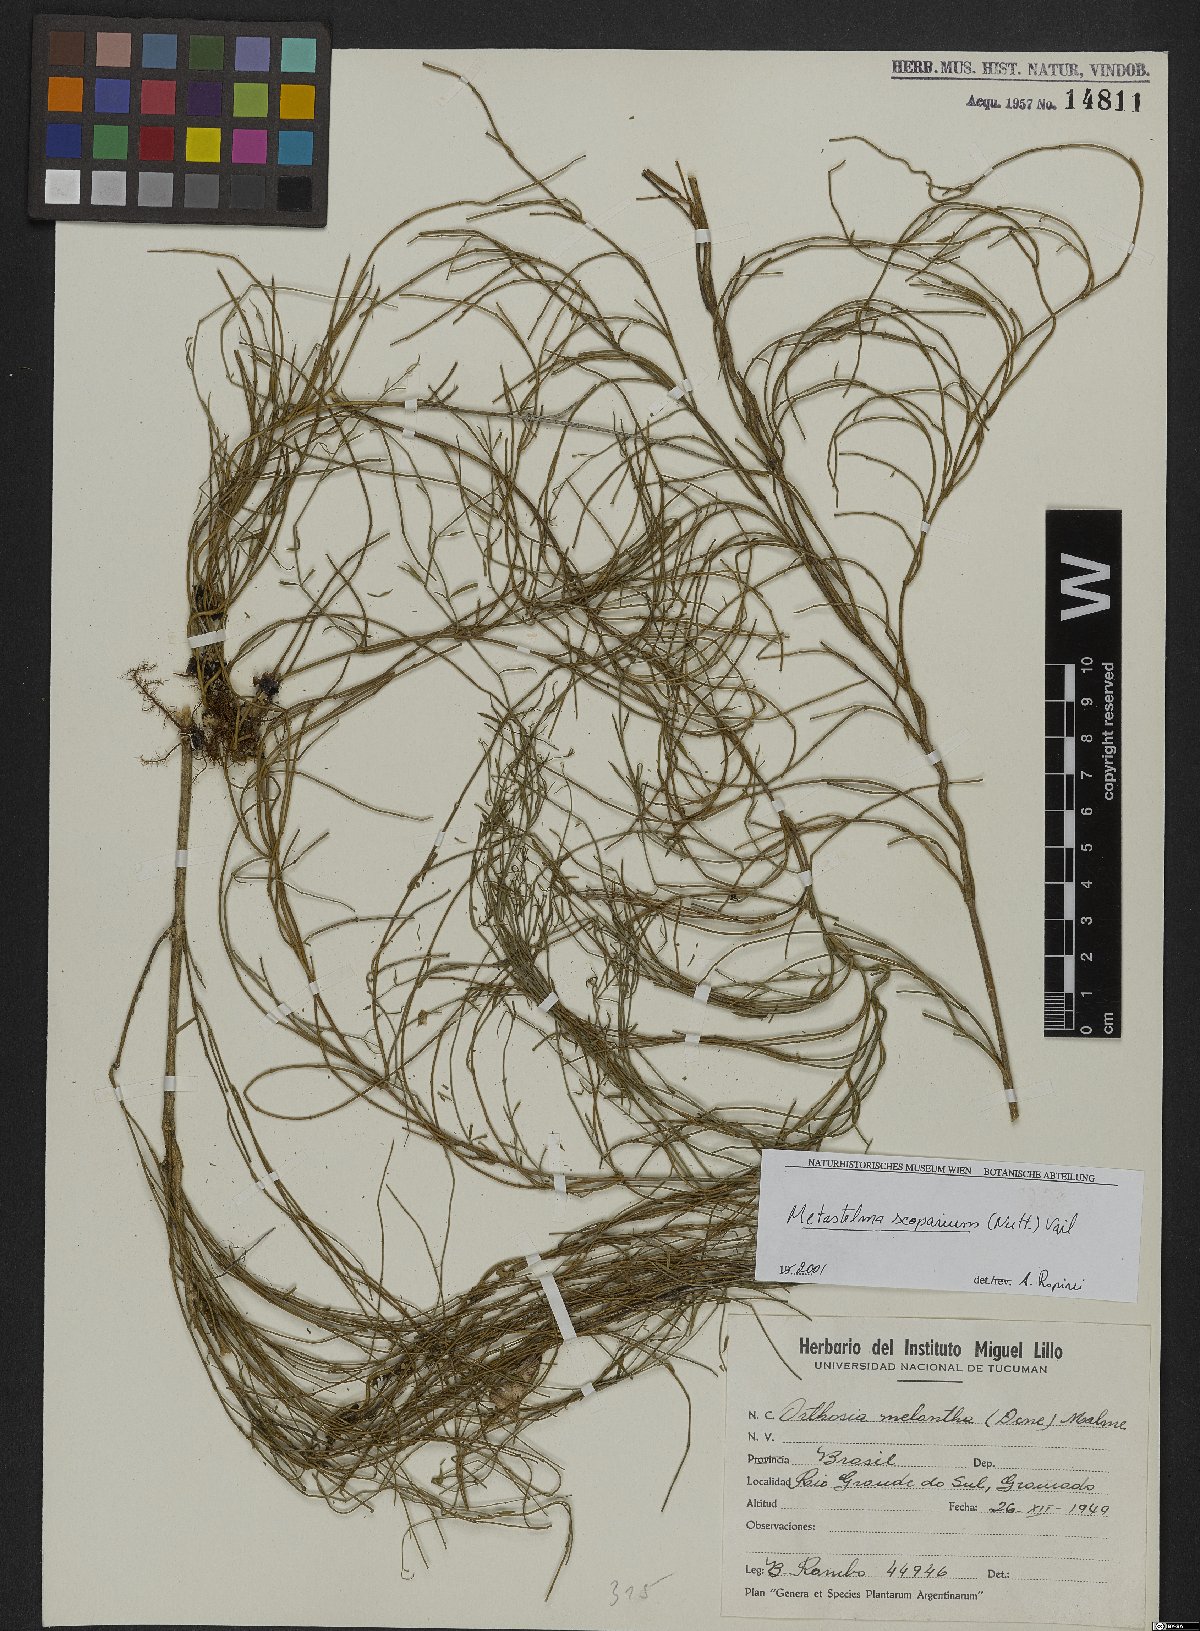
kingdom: Plantae
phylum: Tracheophyta
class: Magnoliopsida
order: Gentianales
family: Apocynaceae
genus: Orthosia
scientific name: Orthosia scoparia
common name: Leafless swallow-wort
